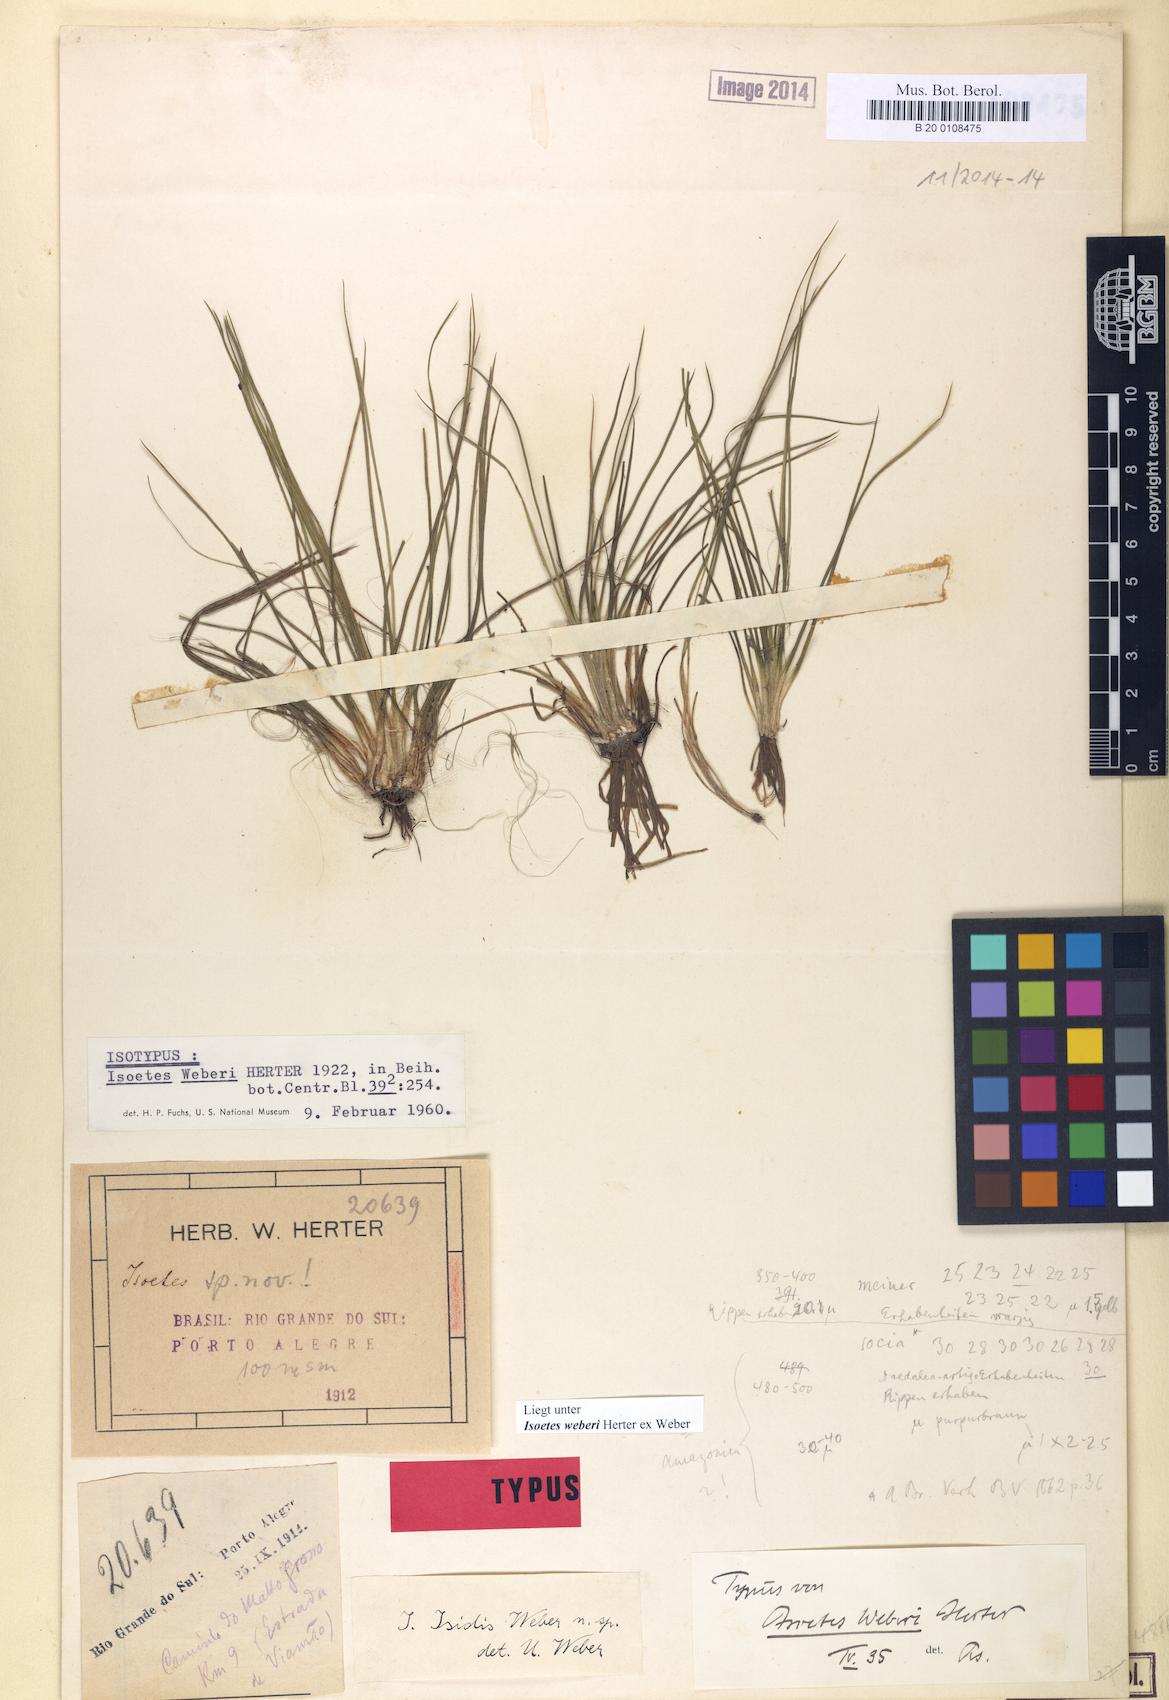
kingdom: Plantae
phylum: Tracheophyta
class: Lycopodiopsida
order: Isoetales
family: Isoetaceae
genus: Isoetes
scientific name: Isoetes weberi
